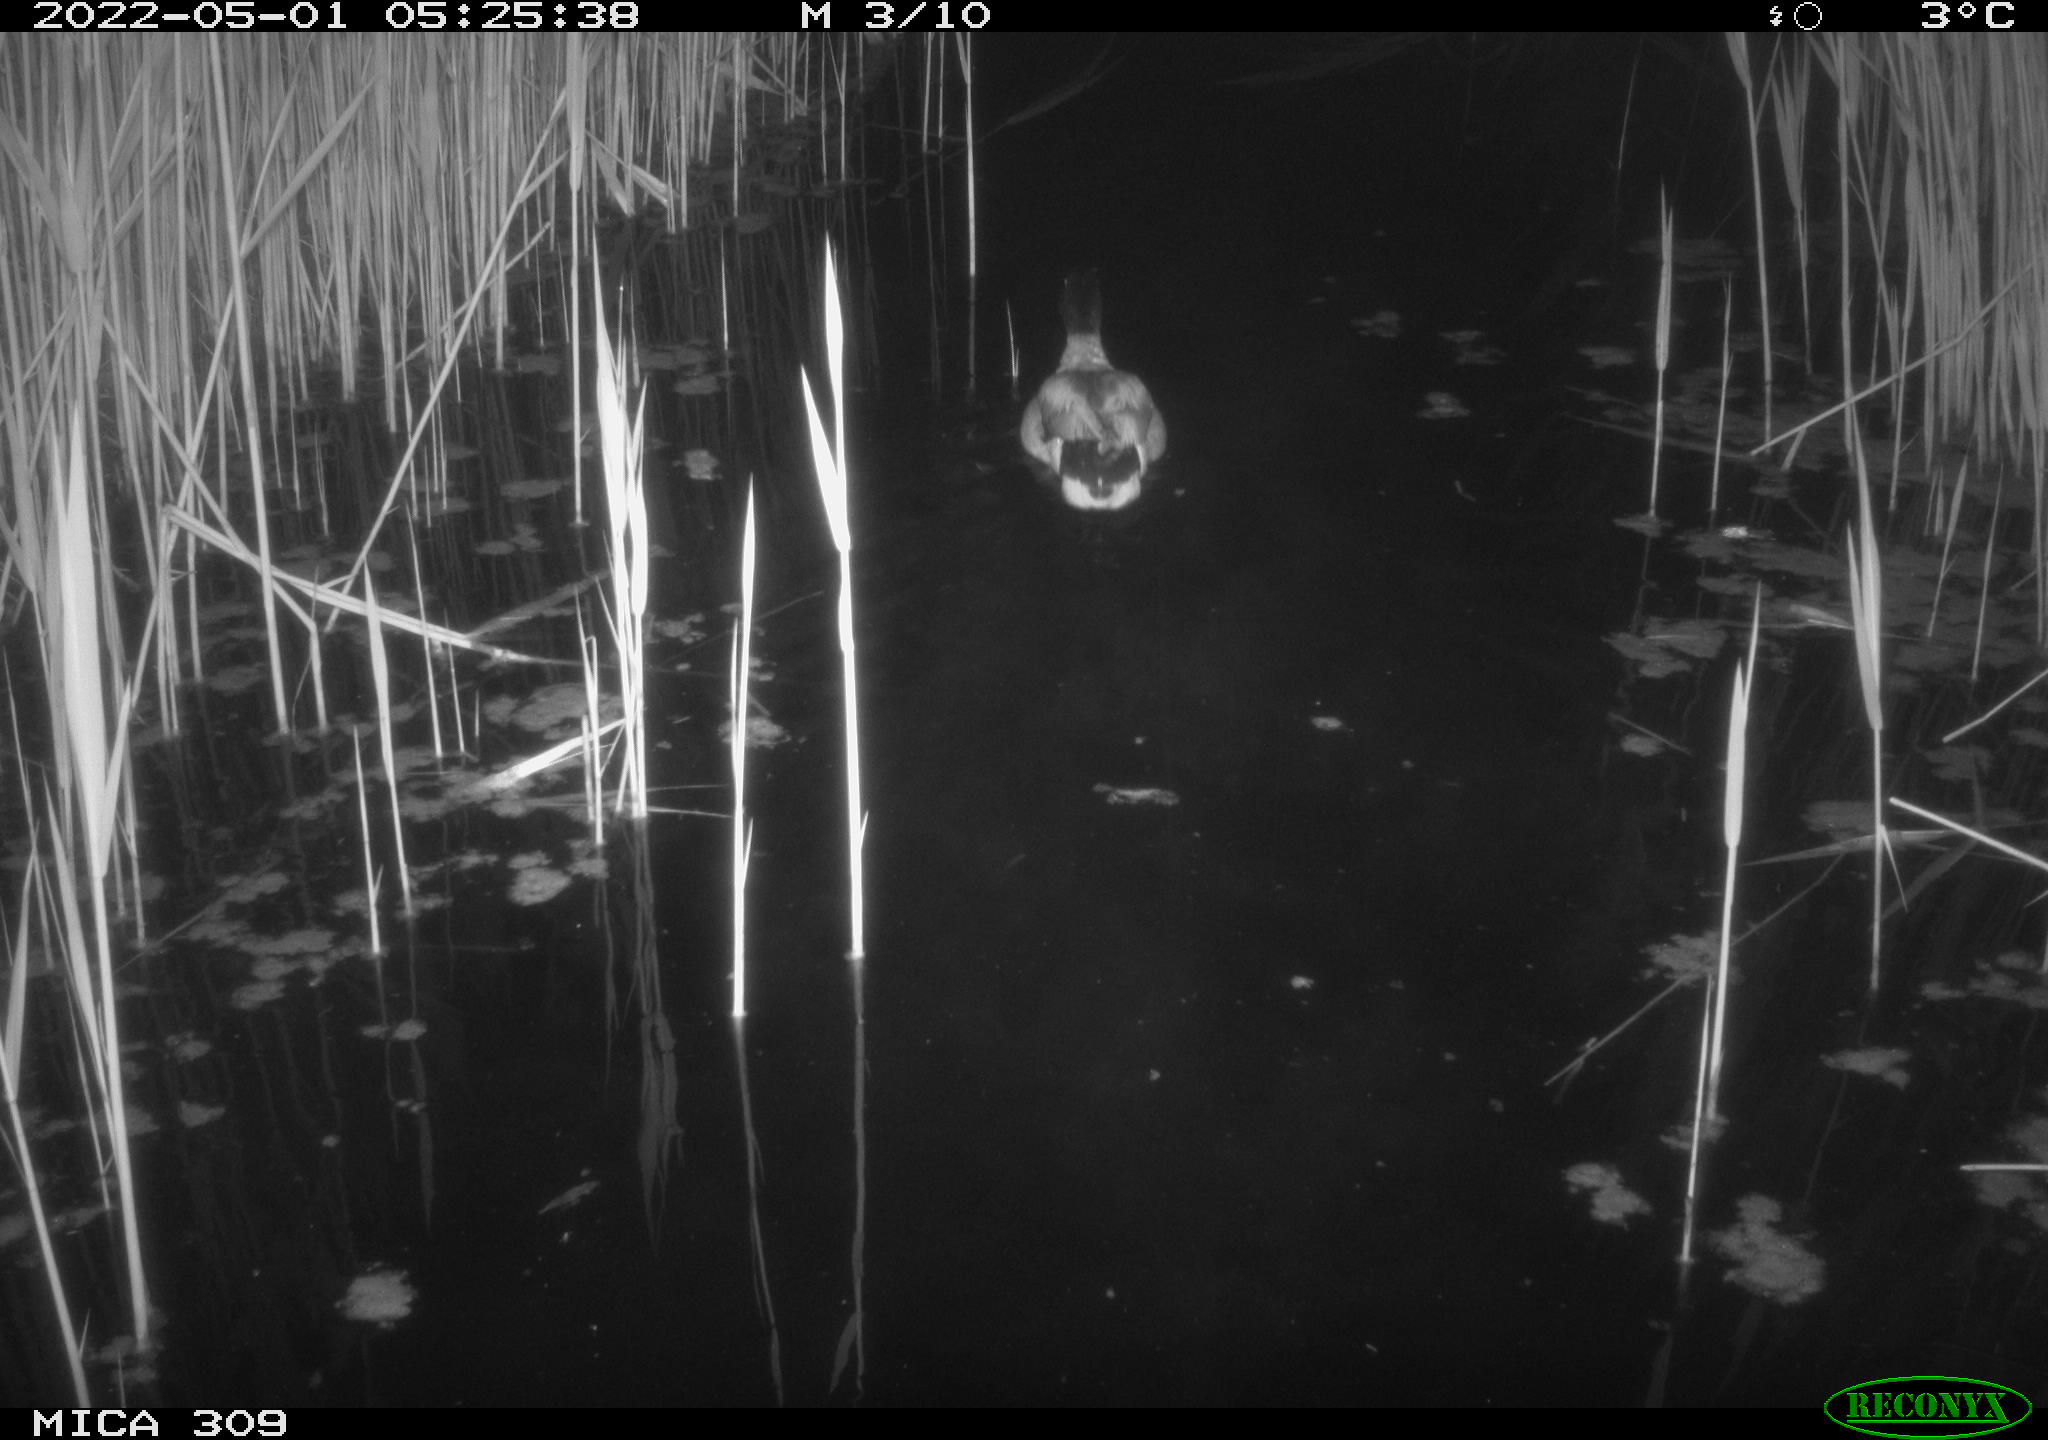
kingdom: Animalia
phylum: Chordata
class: Aves
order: Anseriformes
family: Anatidae
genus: Anas
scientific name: Anas platyrhynchos
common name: Mallard
